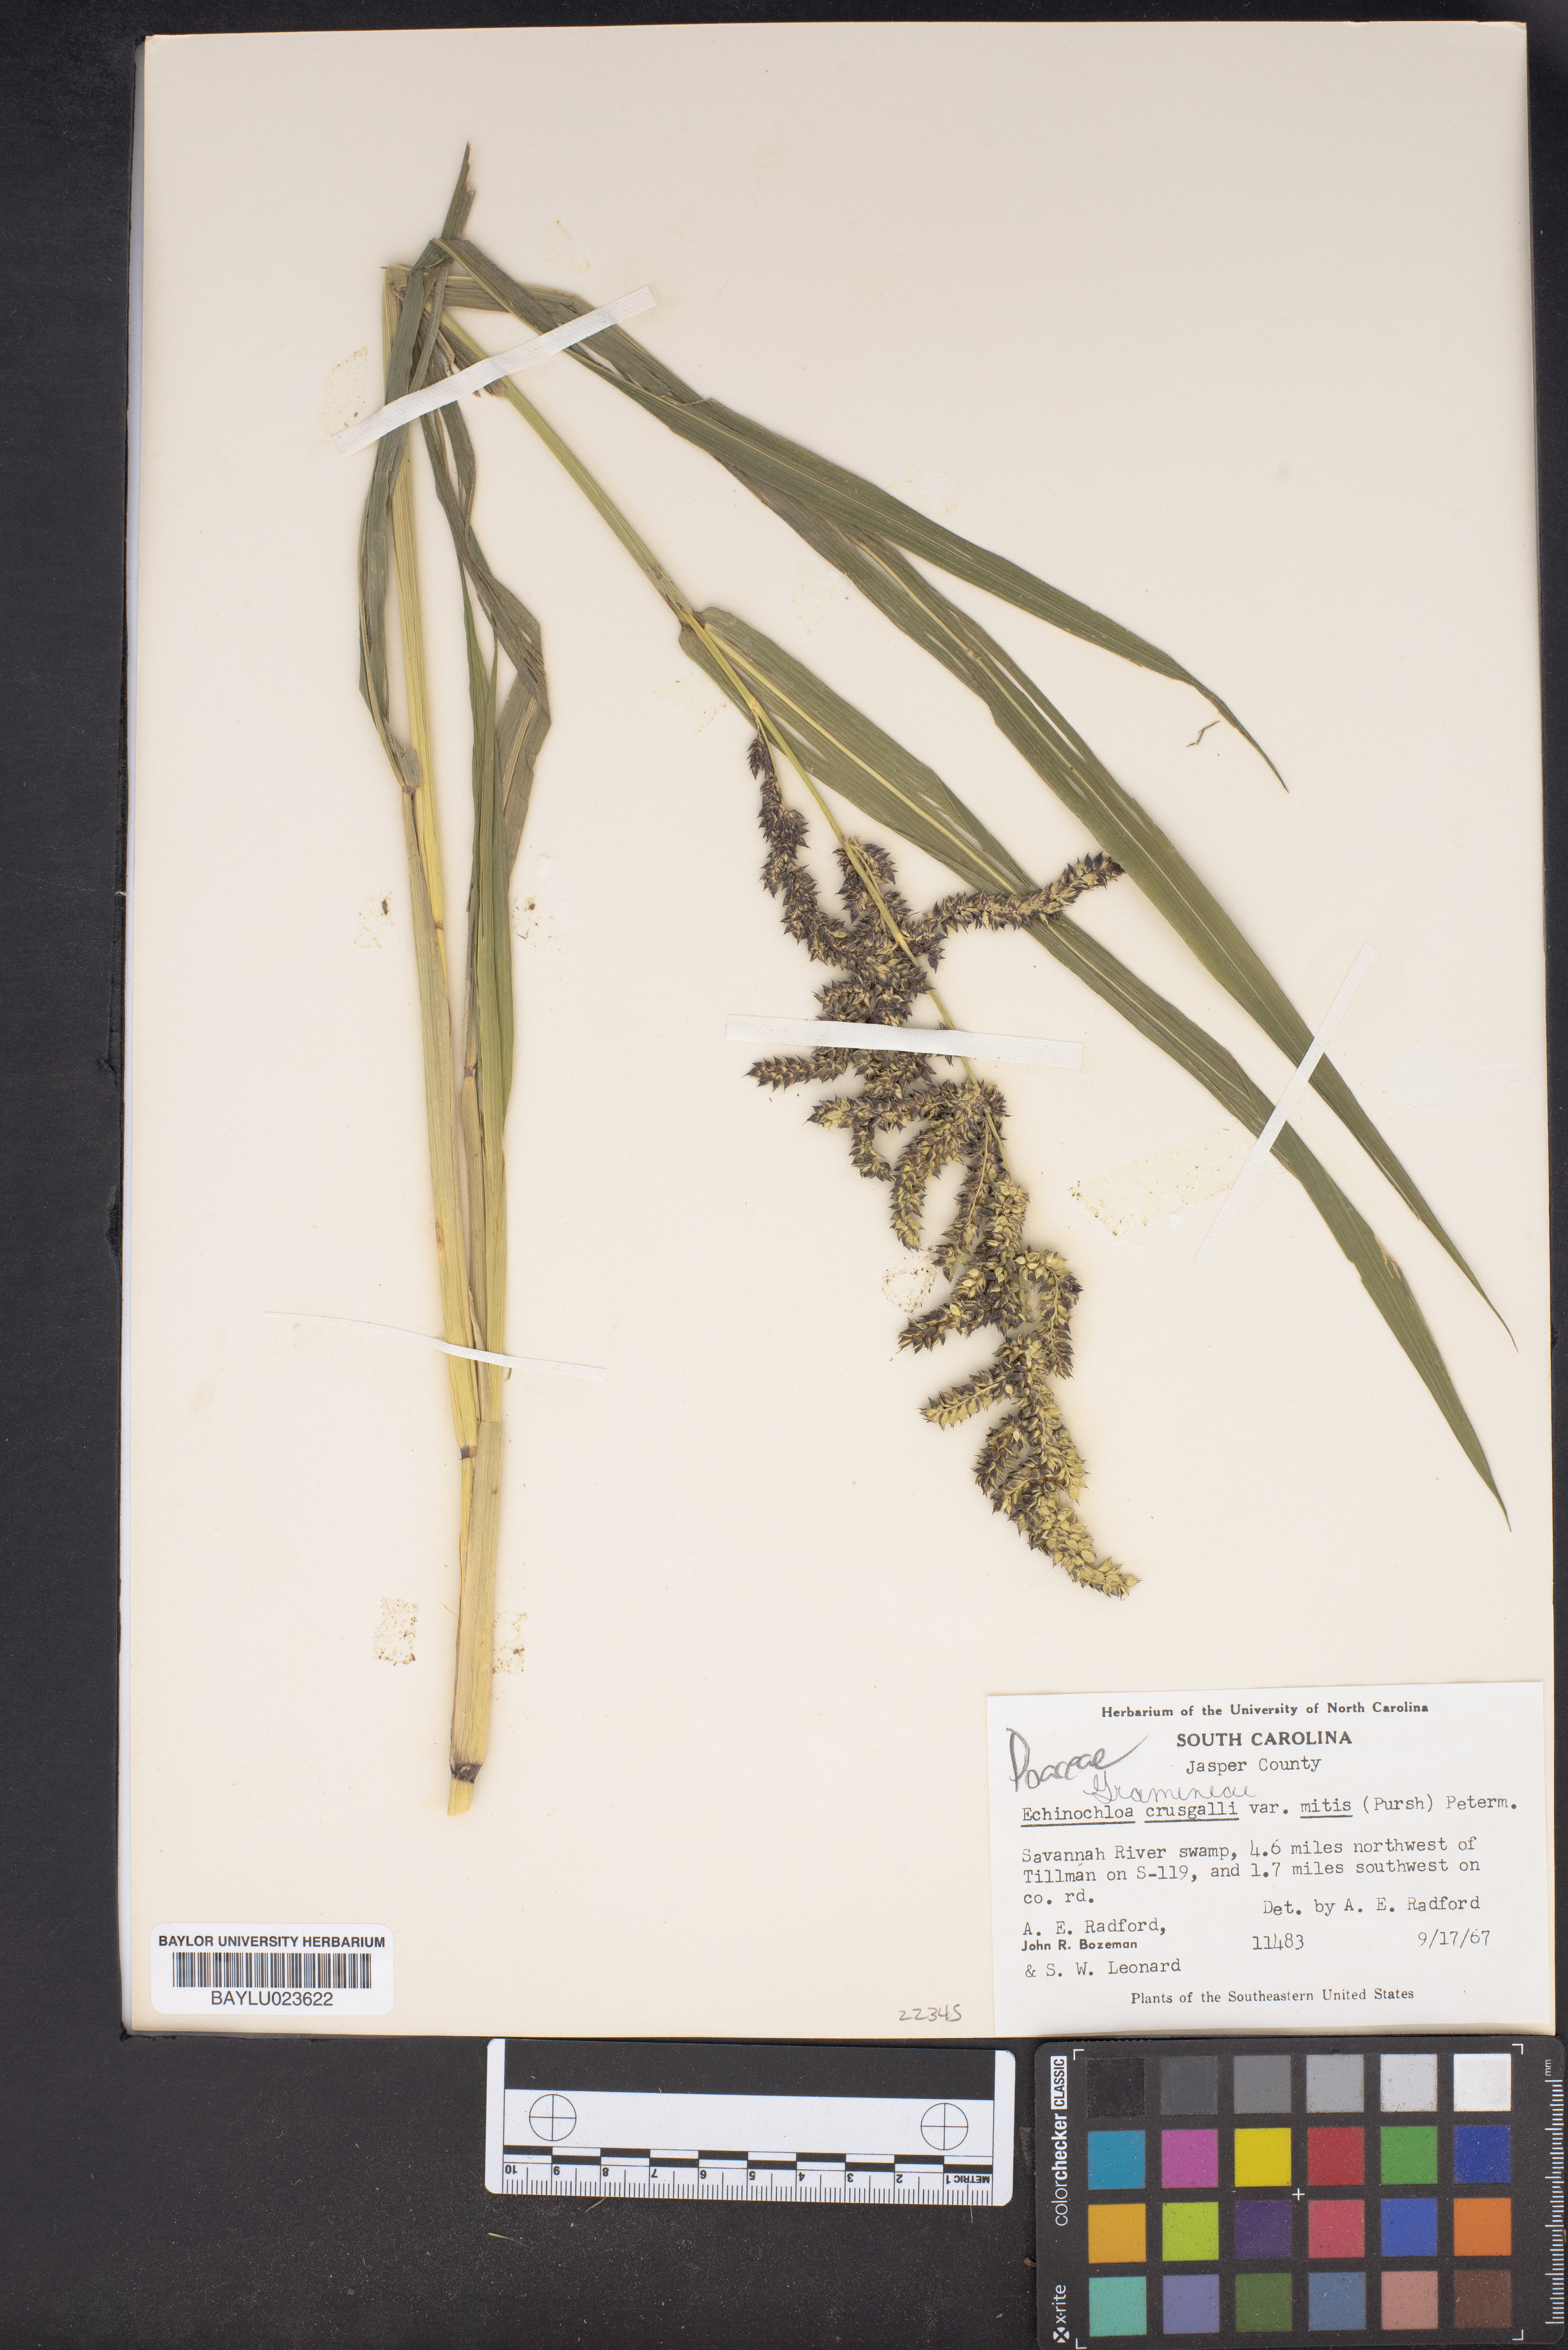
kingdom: Plantae
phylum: Tracheophyta
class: Liliopsida
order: Poales
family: Poaceae
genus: Echinochloa
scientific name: Echinochloa crus-galli
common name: Cockspur
